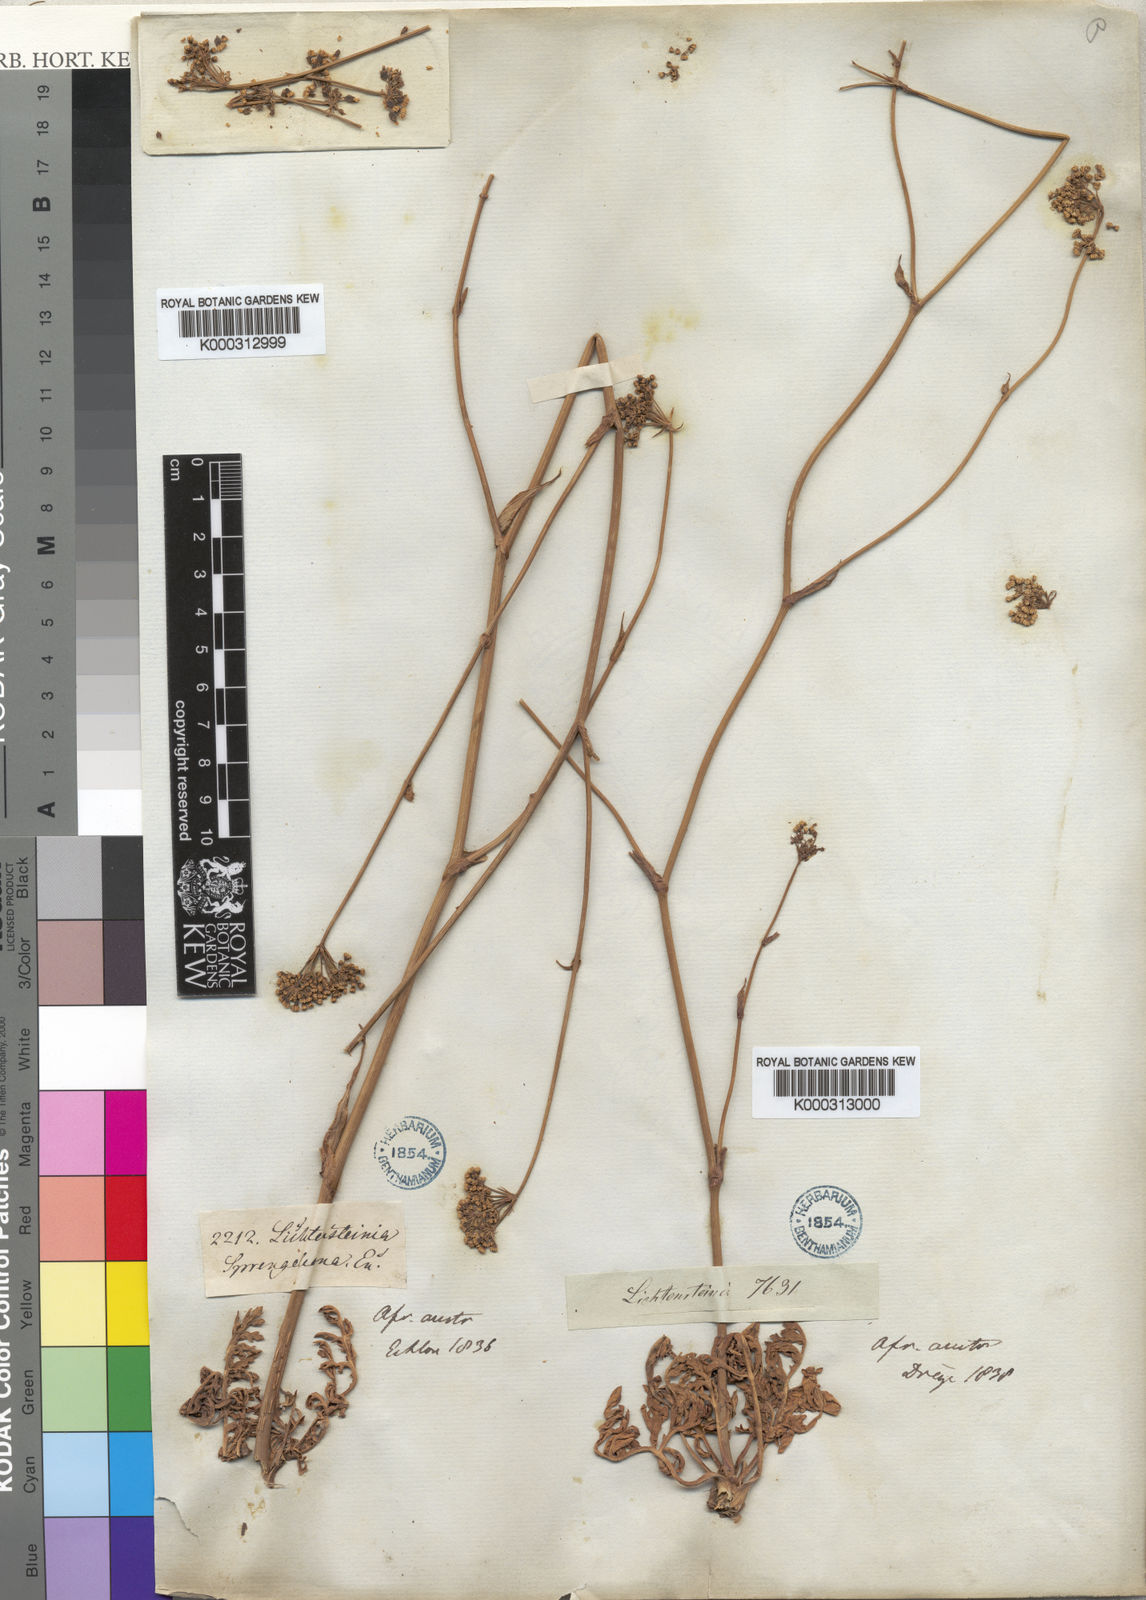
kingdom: Plantae
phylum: Tracheophyta
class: Magnoliopsida
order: Apiales
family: Apiaceae
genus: Lichtensteinia
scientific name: Lichtensteinia
